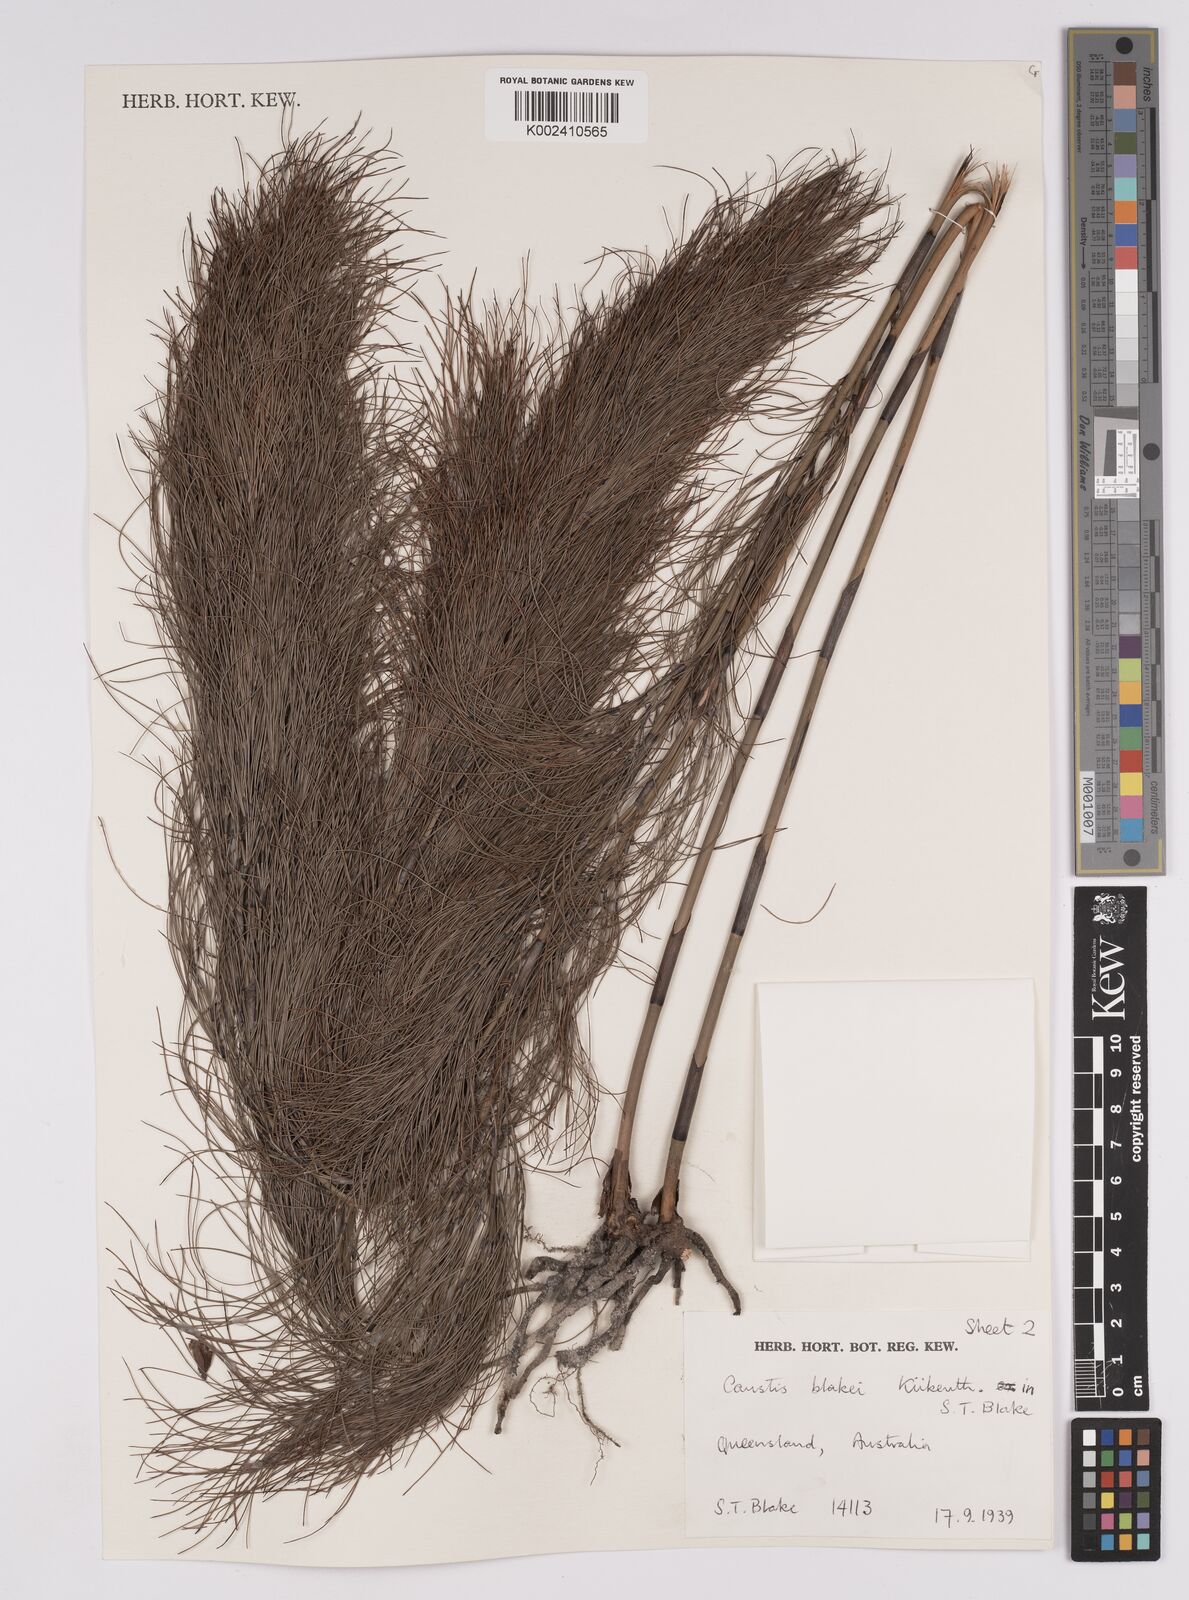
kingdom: Plantae
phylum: Tracheophyta
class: Liliopsida
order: Poales
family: Cyperaceae
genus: Caustis
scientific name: Caustis blakei
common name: Foxtail-fern
